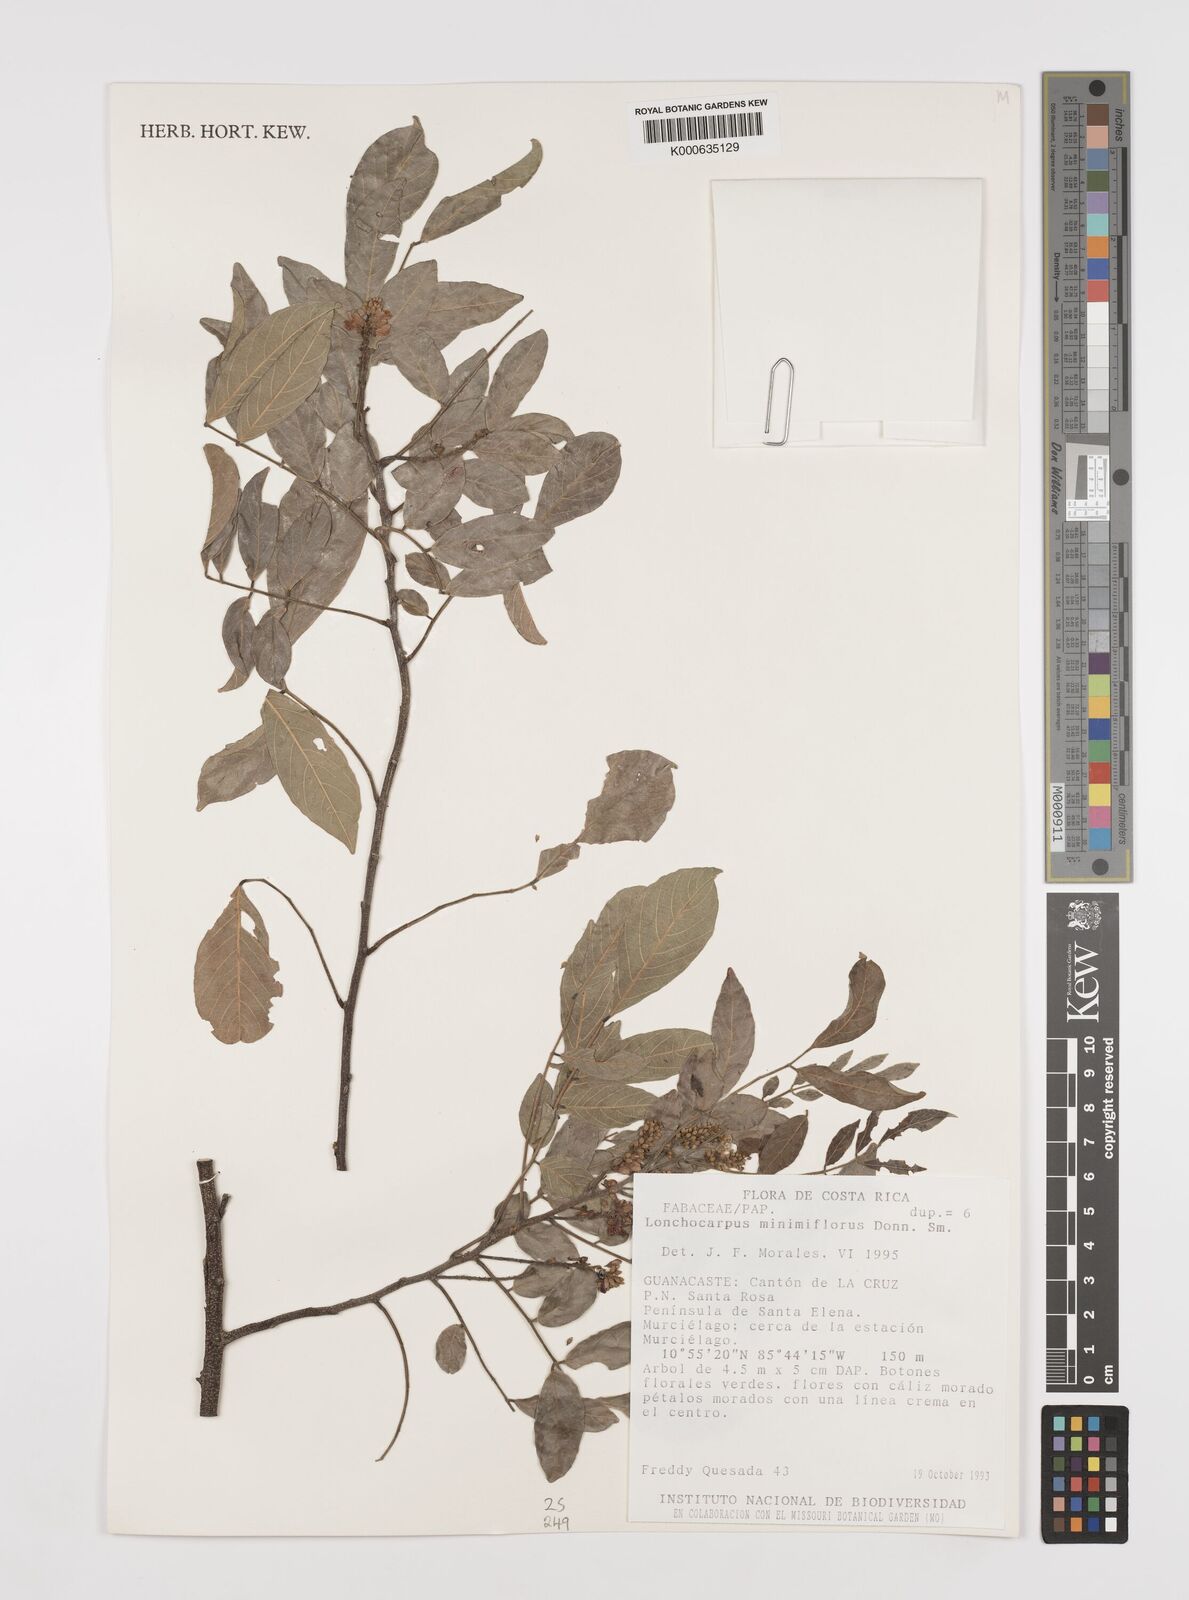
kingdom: Plantae
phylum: Tracheophyta
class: Magnoliopsida
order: Fabales
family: Fabaceae
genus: Lonchocarpus
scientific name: Lonchocarpus minimiflorus
